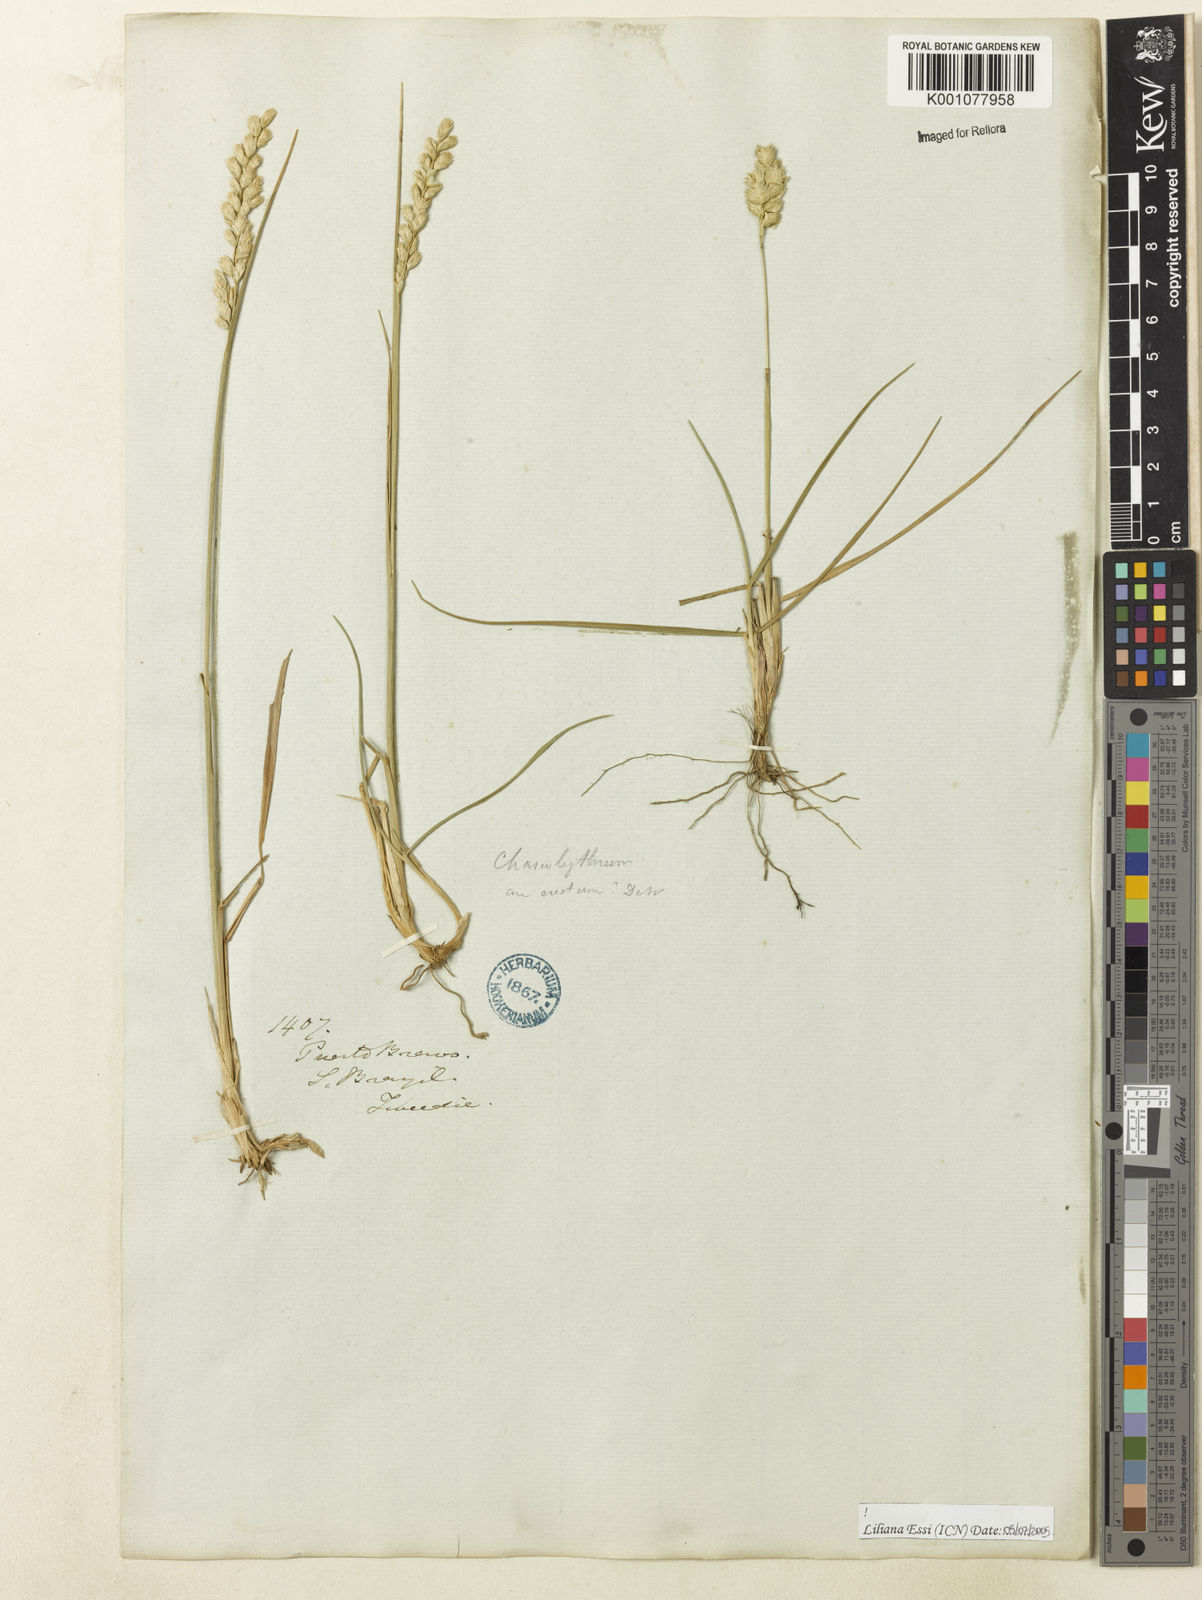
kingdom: Plantae
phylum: Tracheophyta
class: Liliopsida
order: Poales
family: Poaceae
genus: Chascolytrum
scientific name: Chascolytrum erectum
